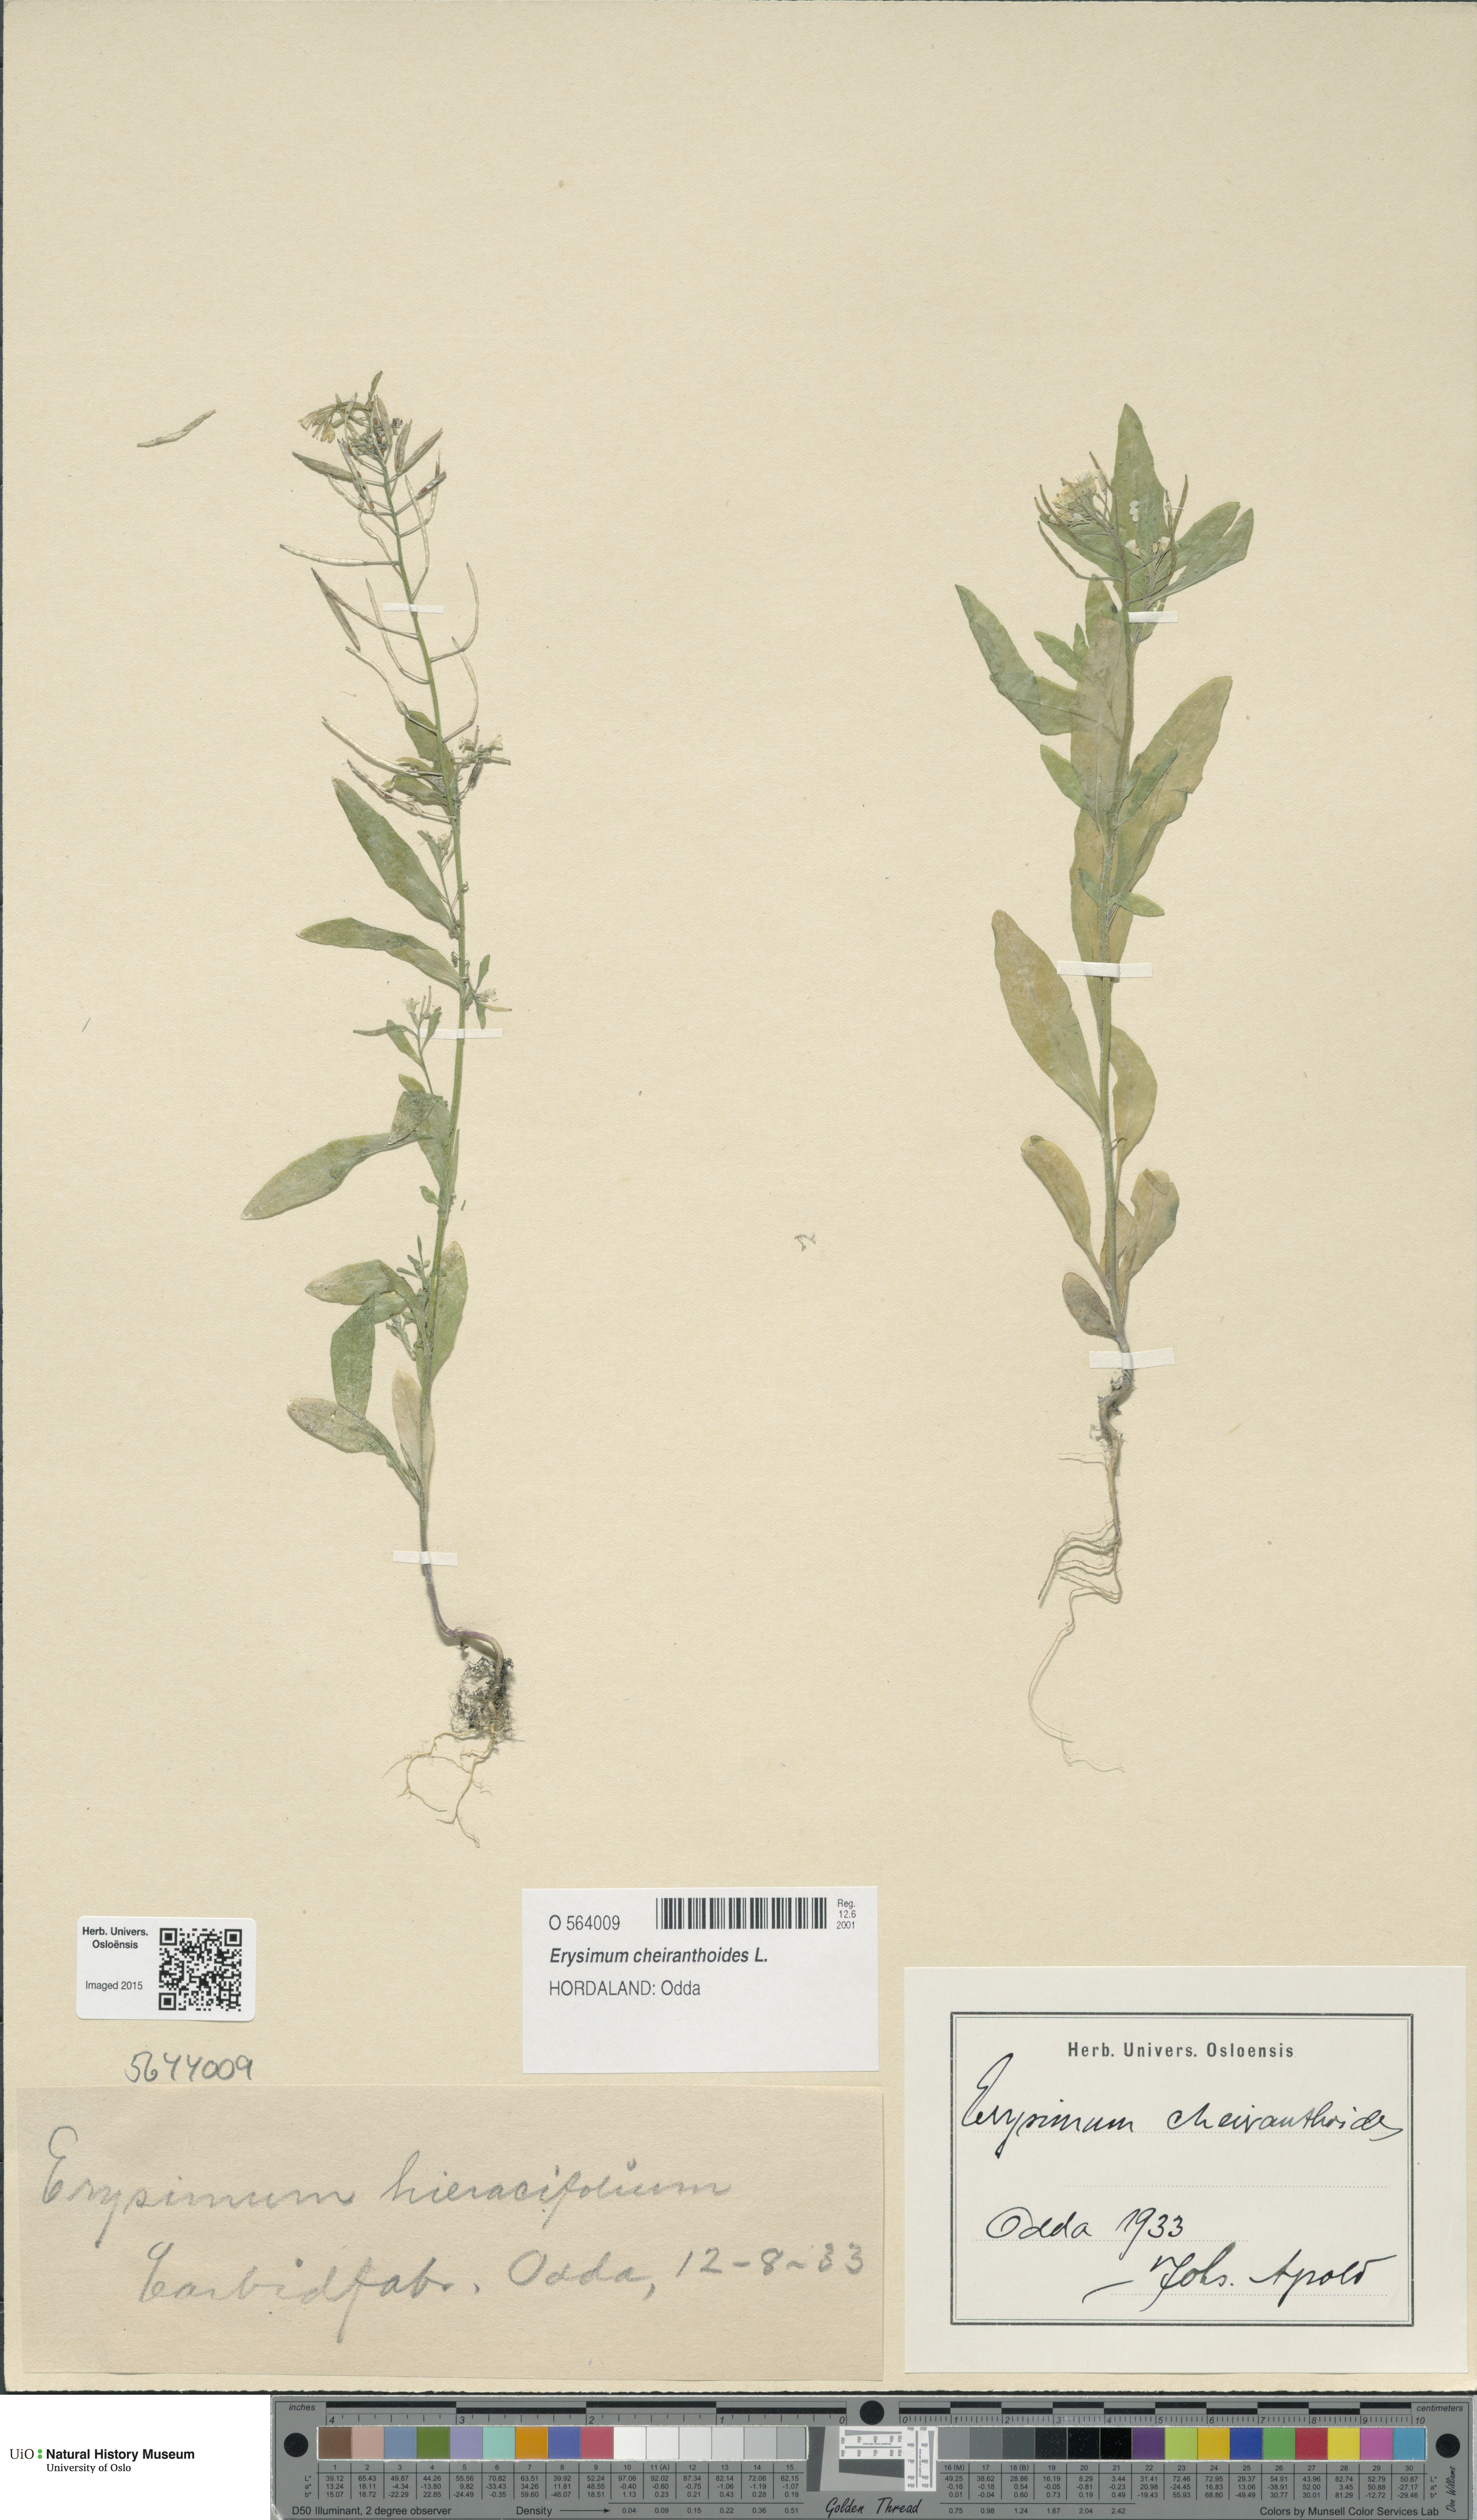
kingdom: Plantae
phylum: Tracheophyta
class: Magnoliopsida
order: Brassicales
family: Brassicaceae
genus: Erysimum
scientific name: Erysimum cheiranthoides
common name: Treacle mustard
